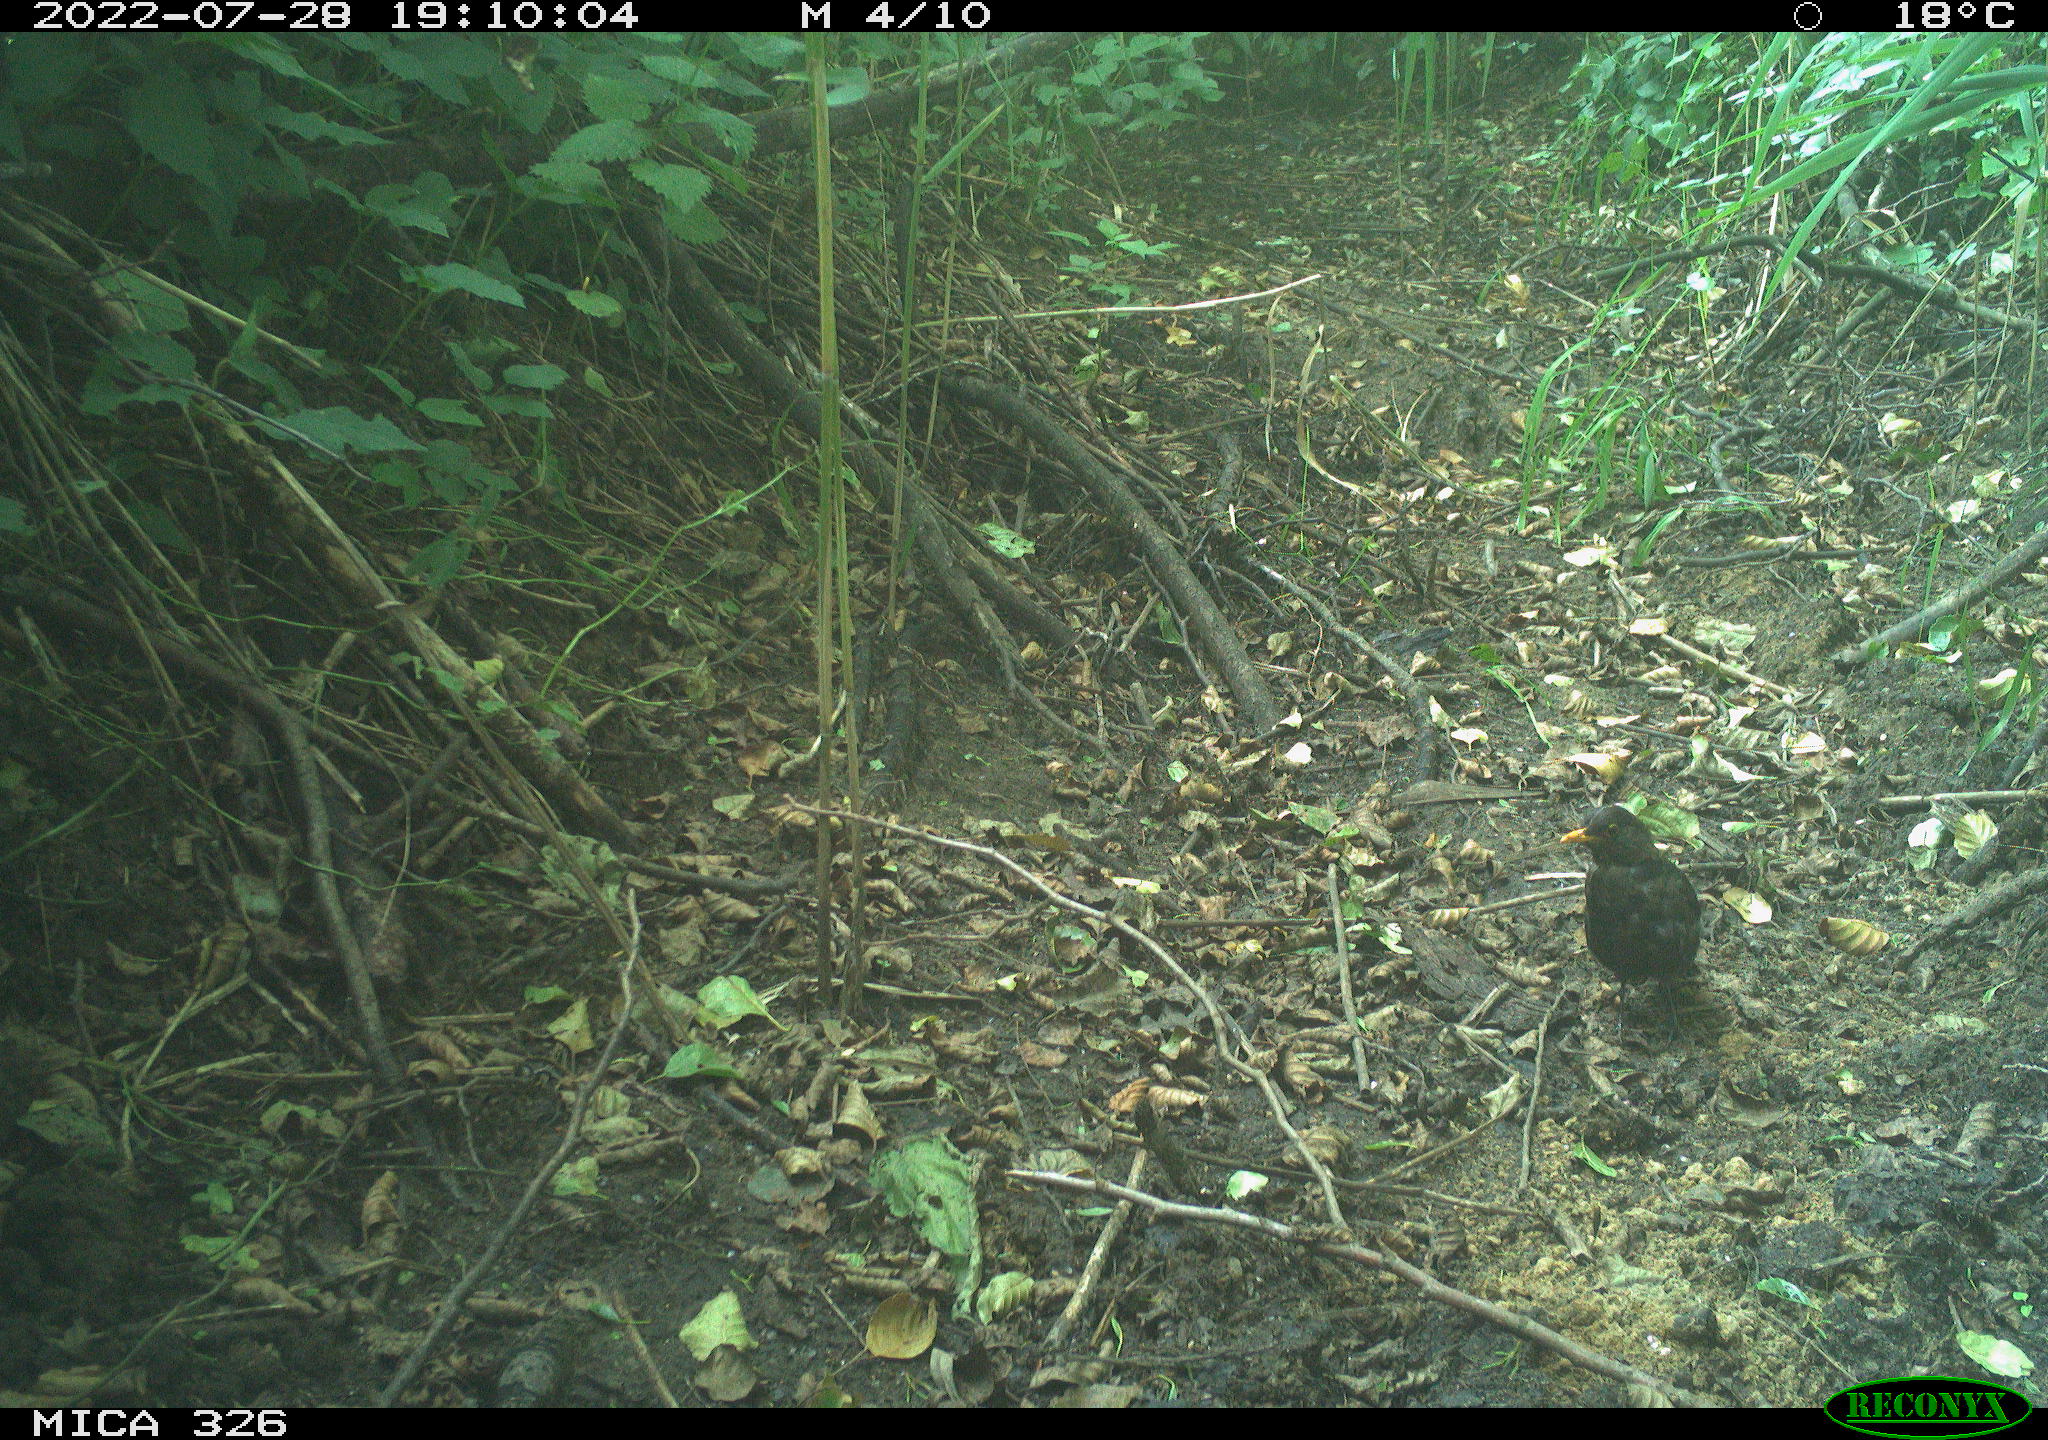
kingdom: Animalia
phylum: Chordata
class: Aves
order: Passeriformes
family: Turdidae
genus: Turdus
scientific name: Turdus merula
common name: Common blackbird
